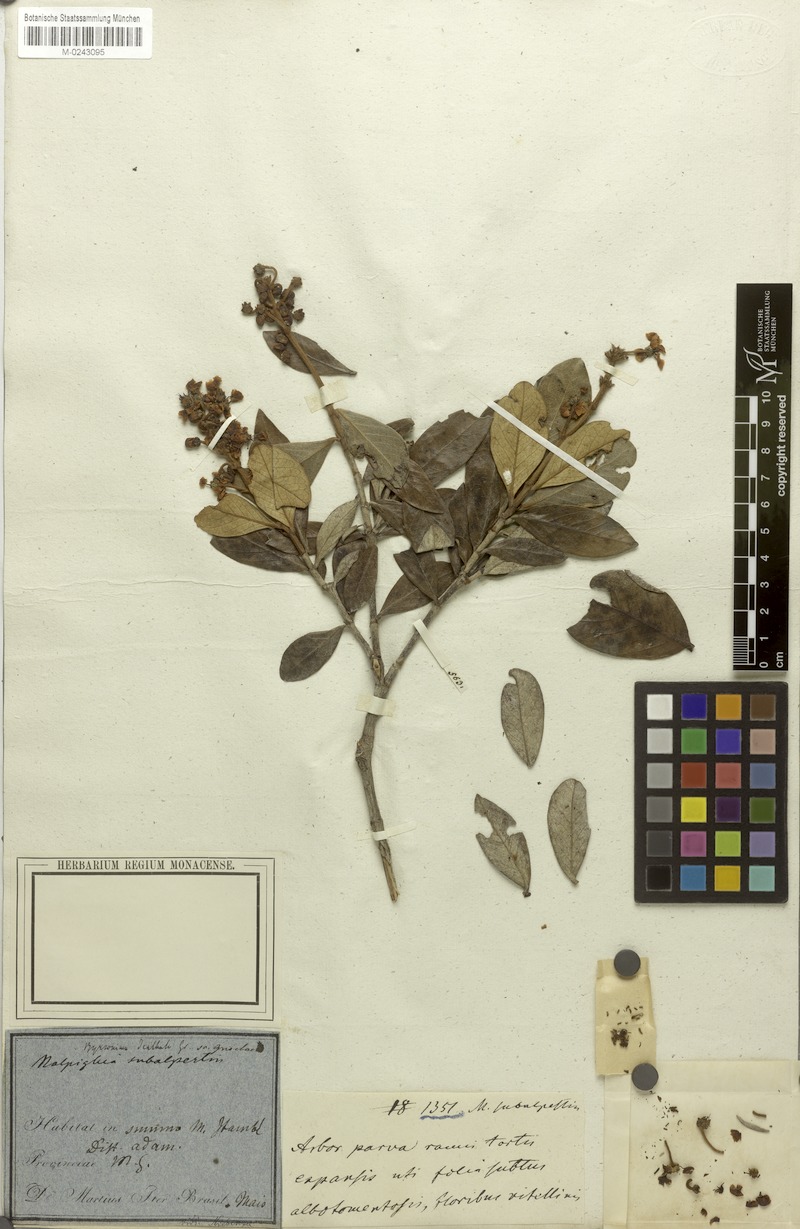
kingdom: Plantae
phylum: Tracheophyta
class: Magnoliopsida
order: Malpighiales
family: Malpighiaceae
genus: Byrsonima
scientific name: Byrsonima dealbata
